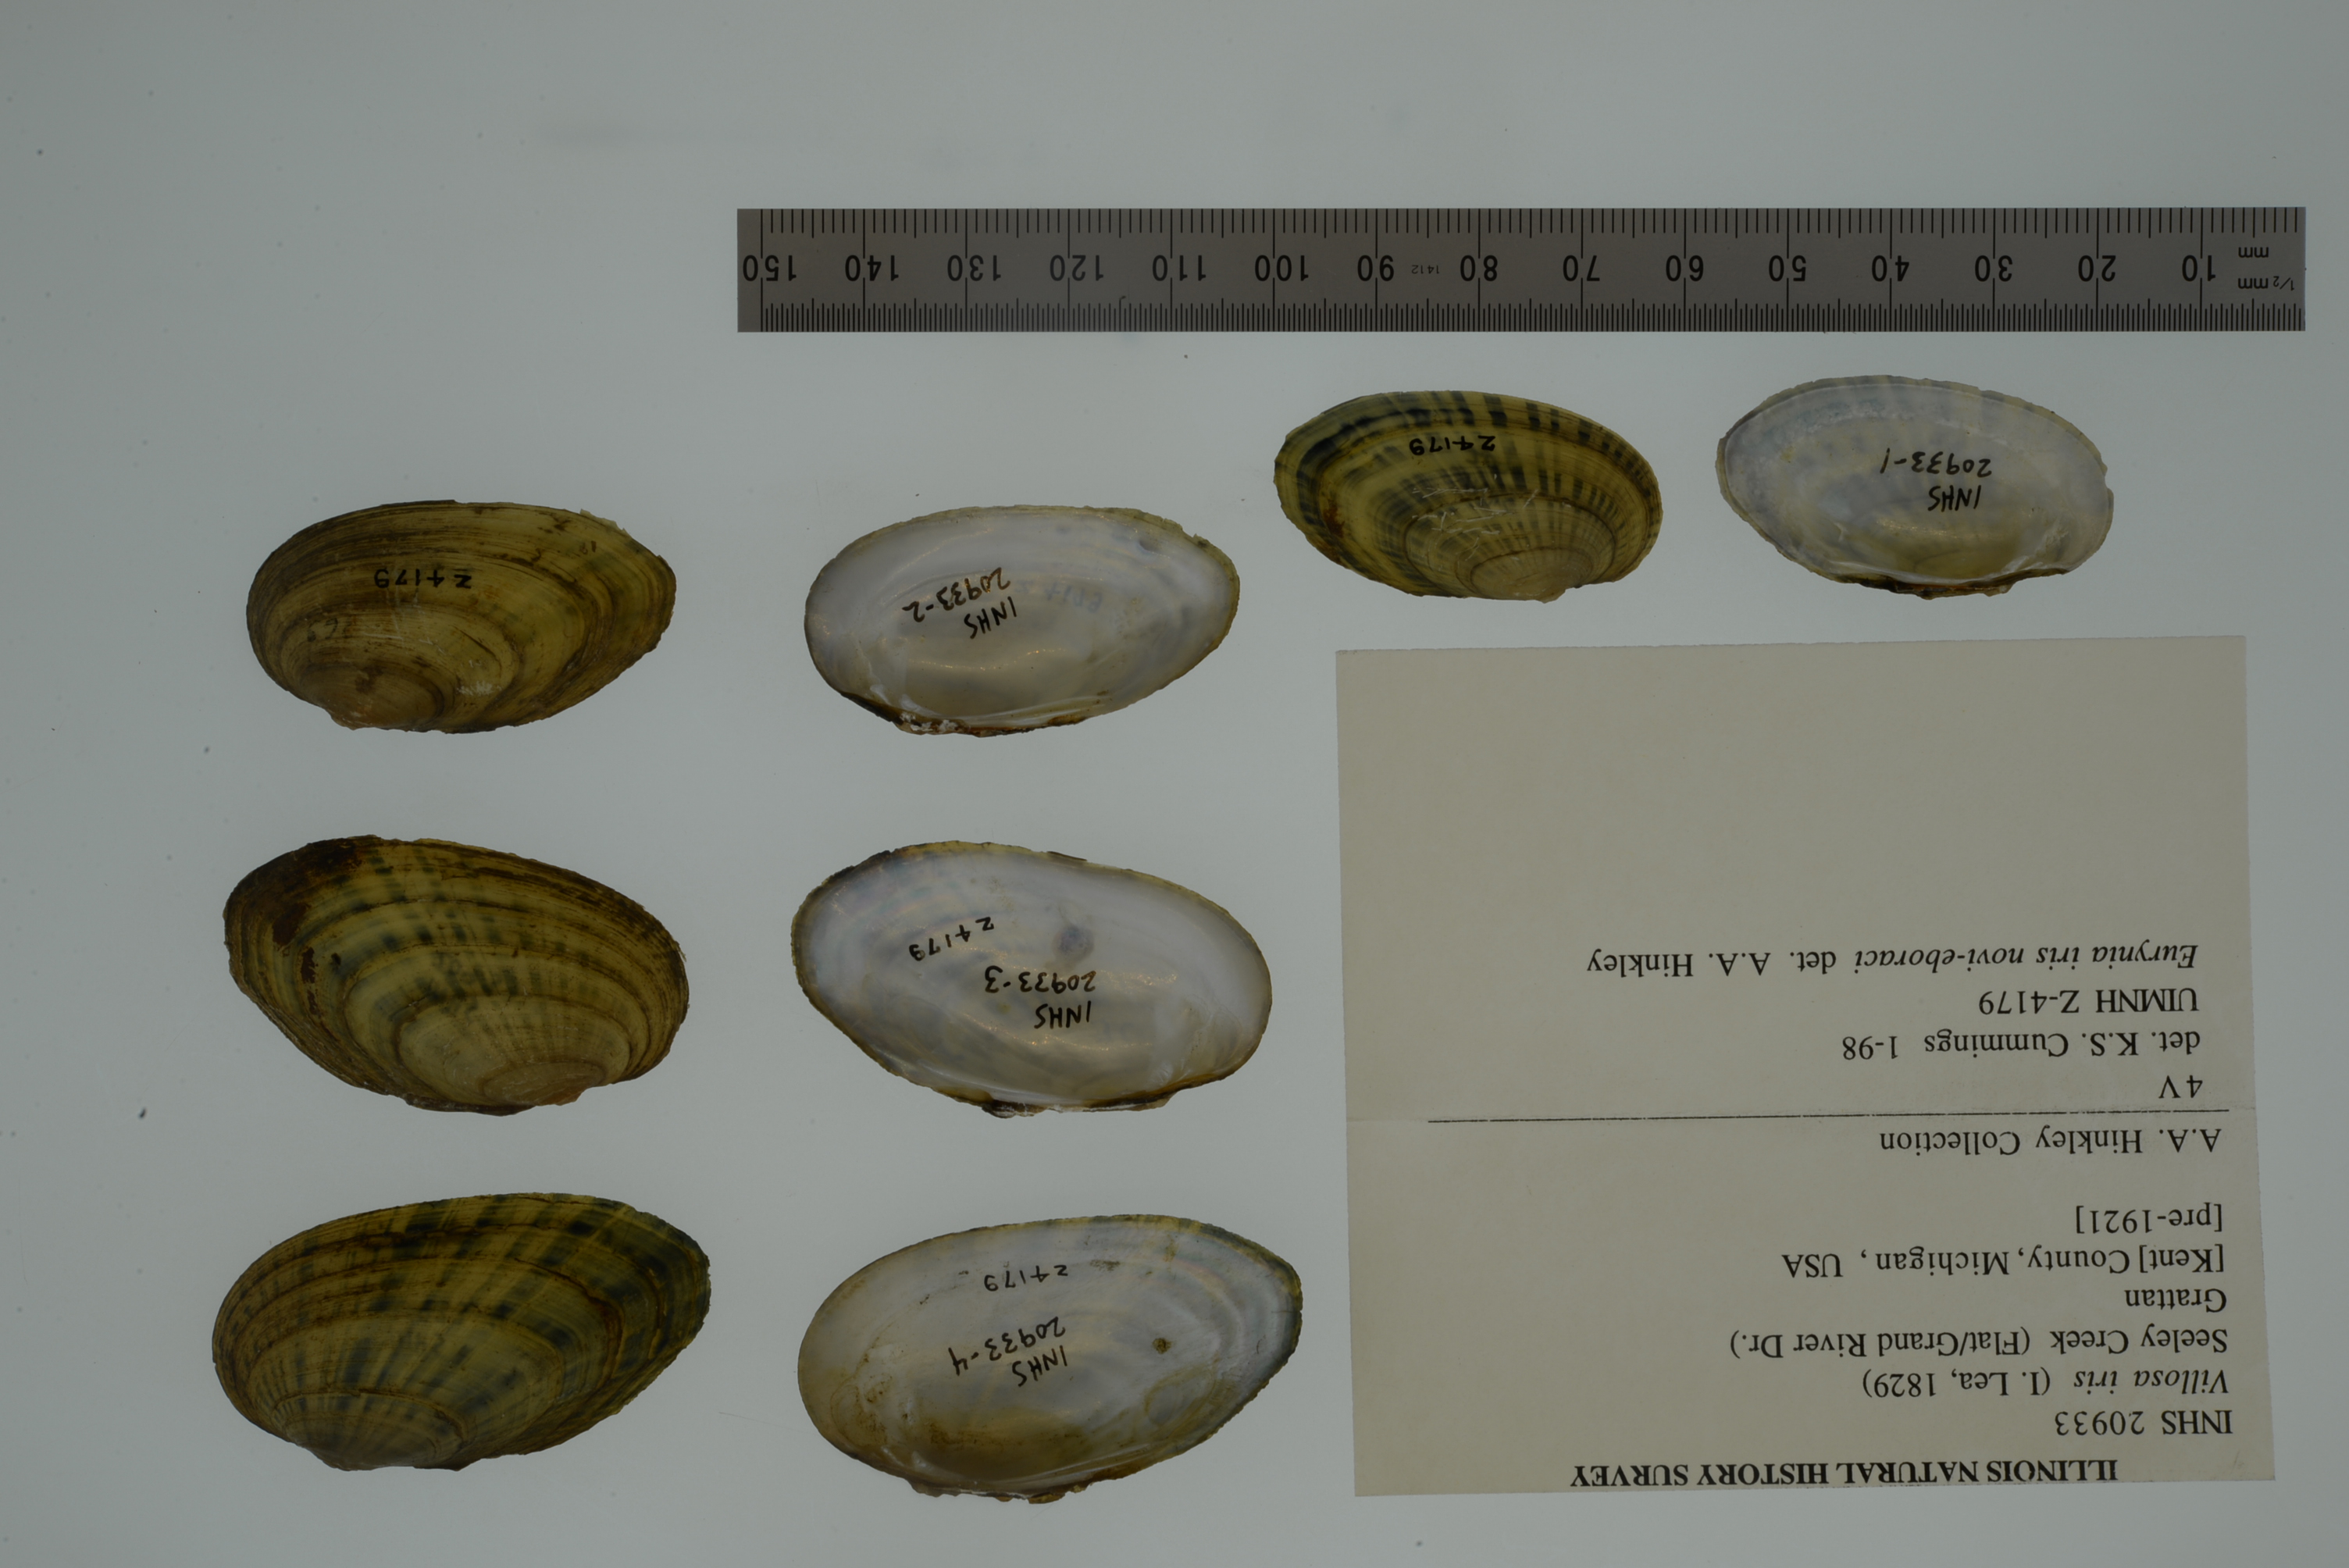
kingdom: Animalia
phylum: Mollusca
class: Bivalvia
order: Unionida
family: Unionidae
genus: Cambarunio
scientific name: Cambarunio iris
